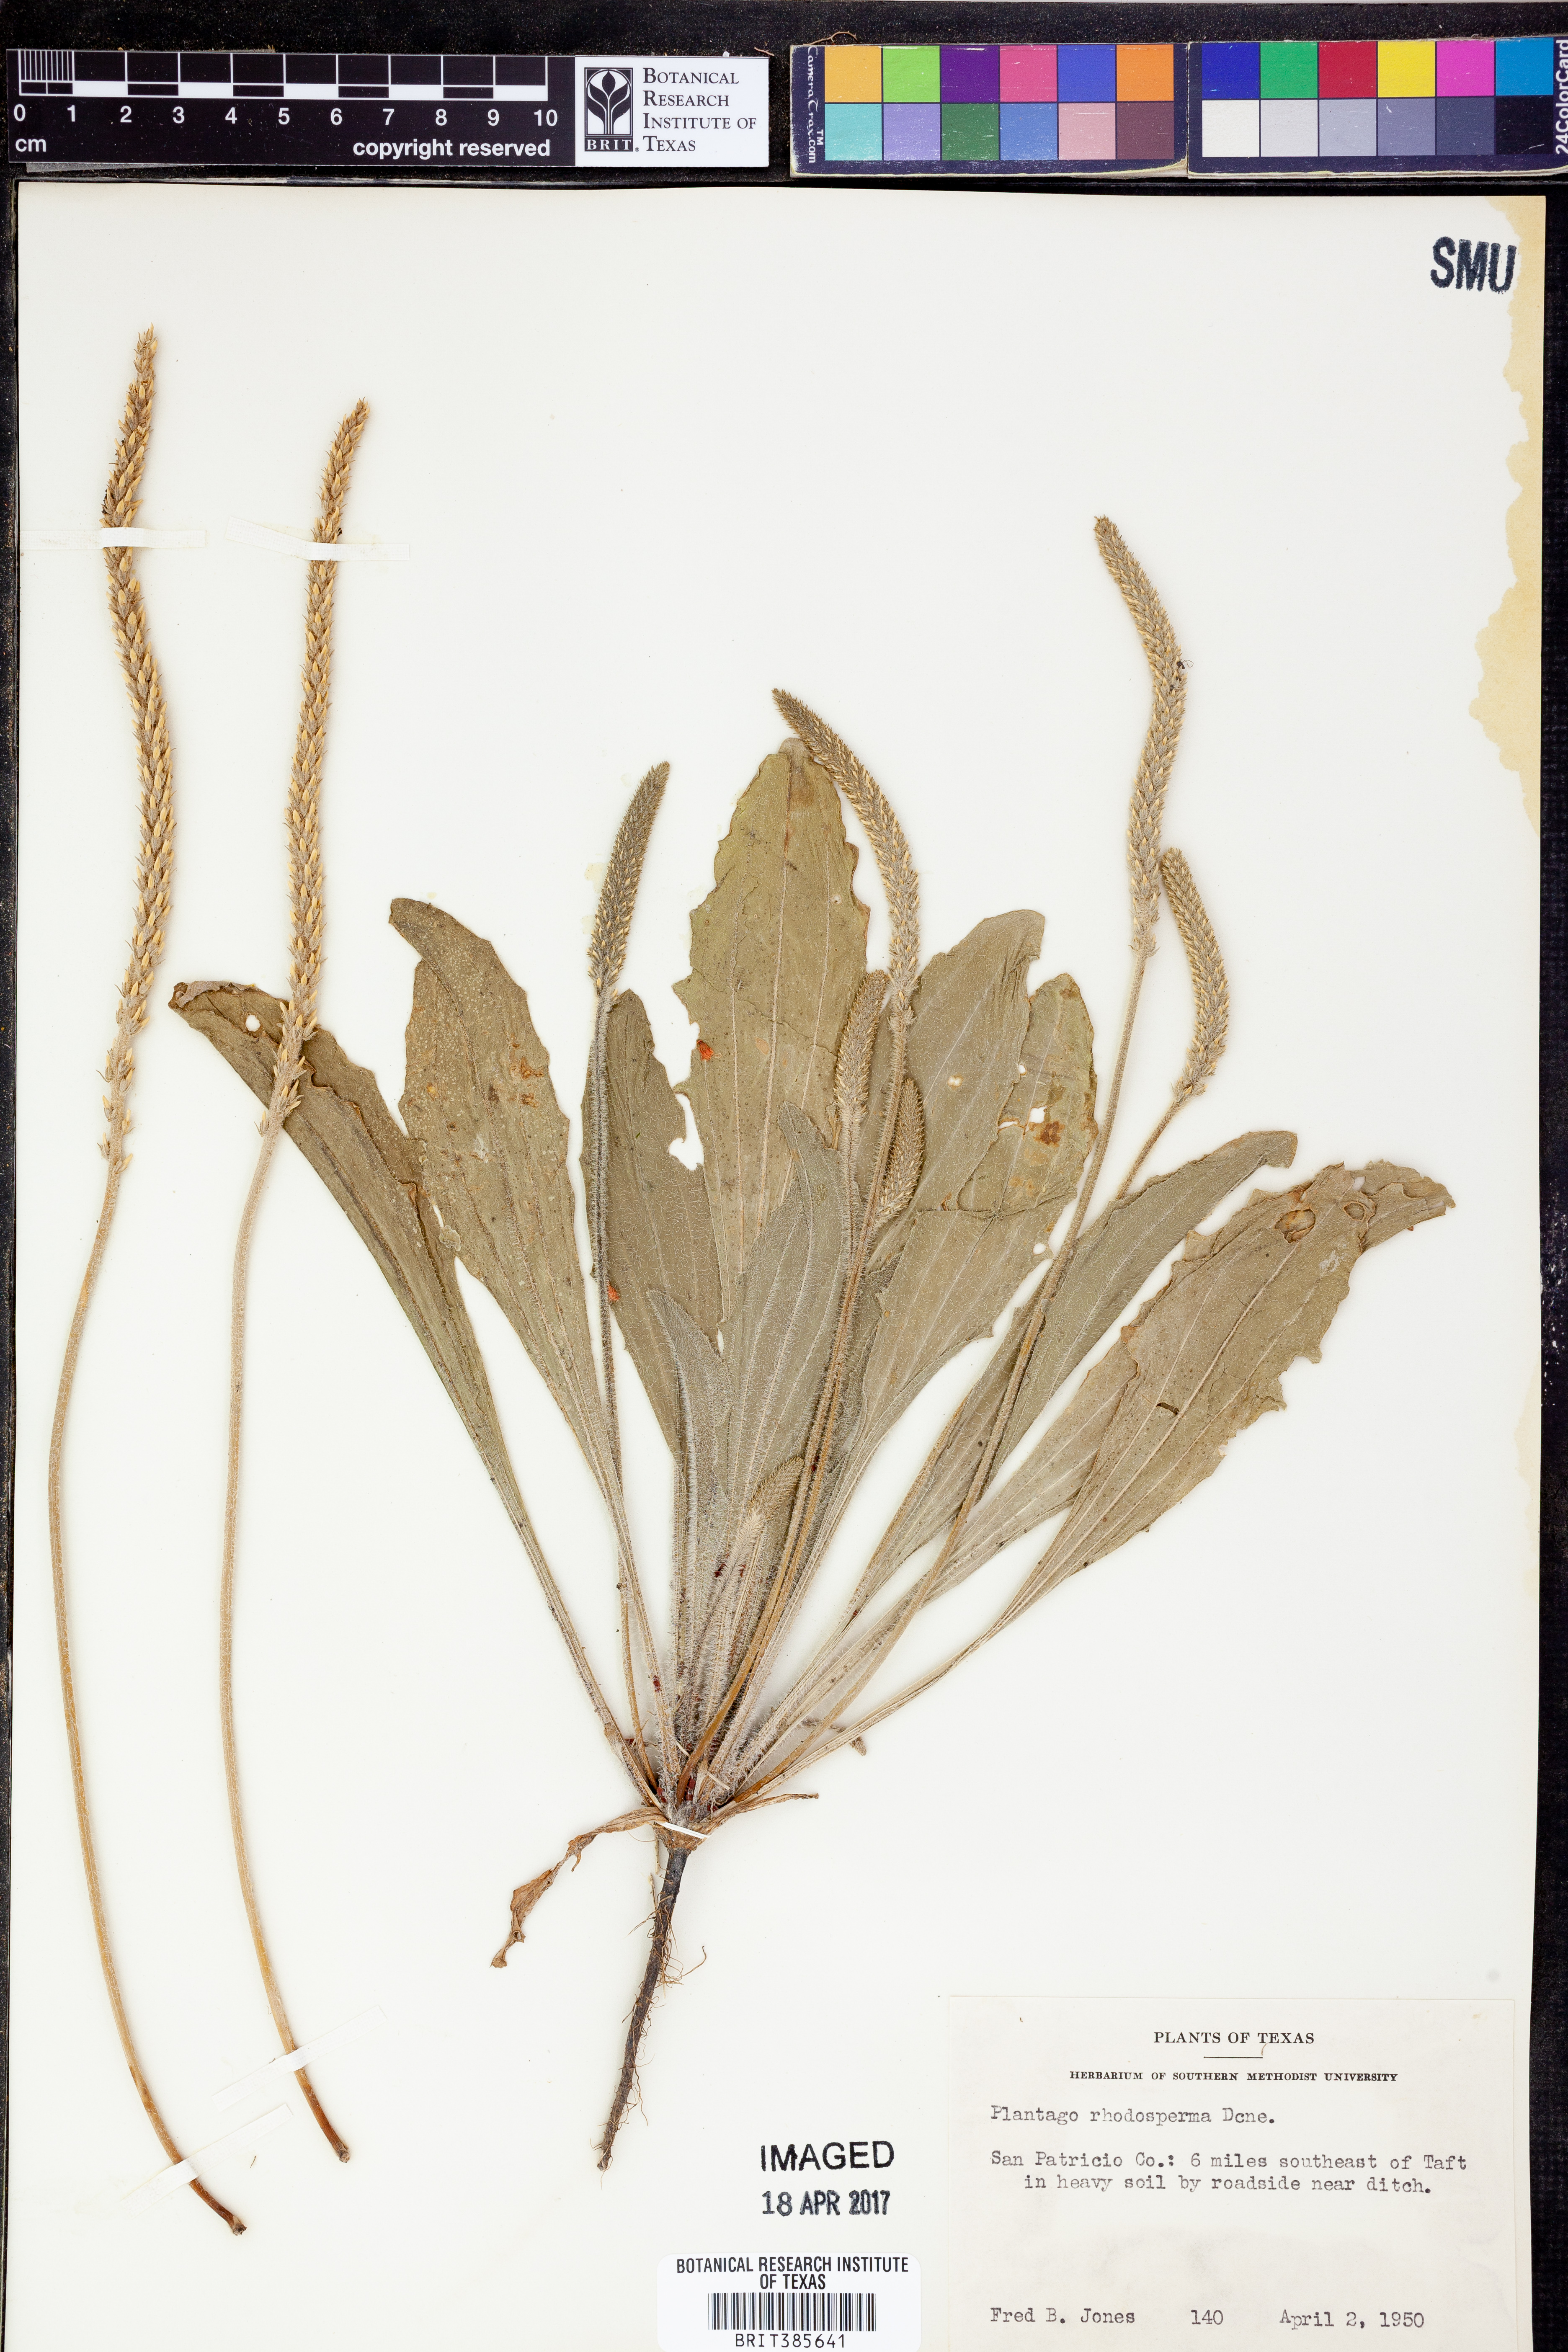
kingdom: Plantae
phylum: Tracheophyta
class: Magnoliopsida
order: Lamiales
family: Plantaginaceae
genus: Plantago
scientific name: Plantago rhodosperma
